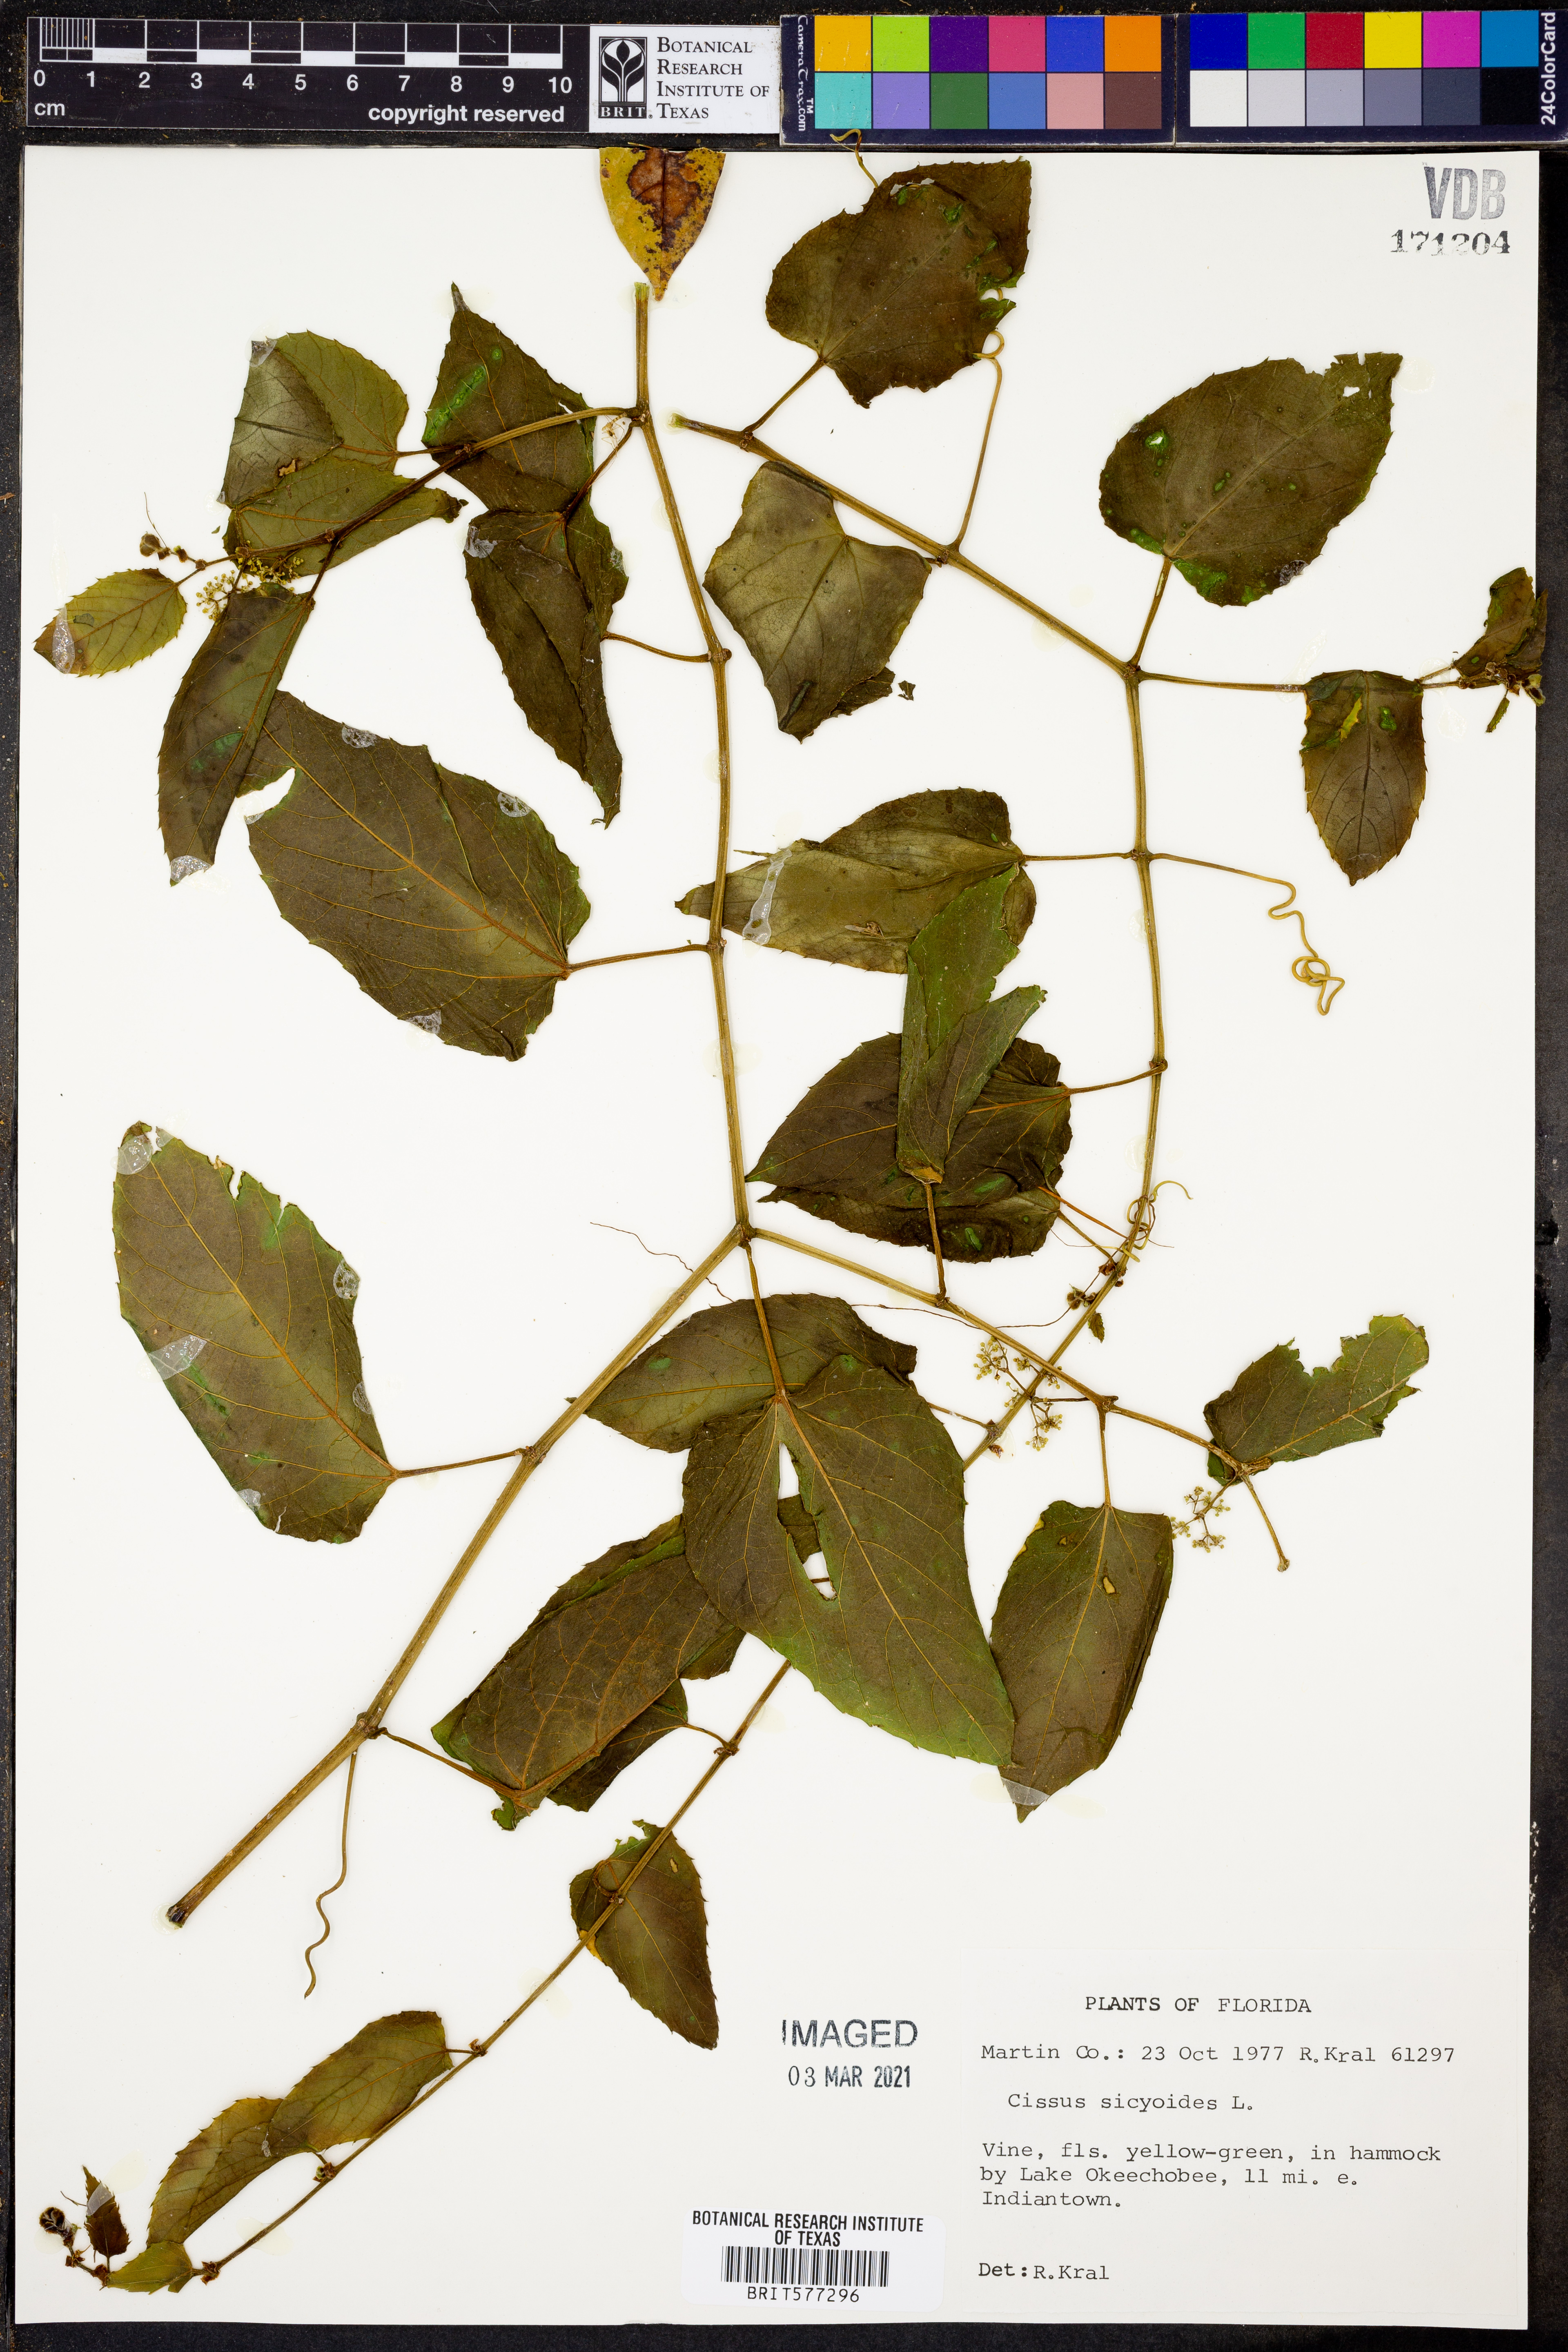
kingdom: Plantae
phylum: Tracheophyta
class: Magnoliopsida
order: Vitales
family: Vitaceae
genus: Cissus
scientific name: Cissus verticillata
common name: Princess vine
